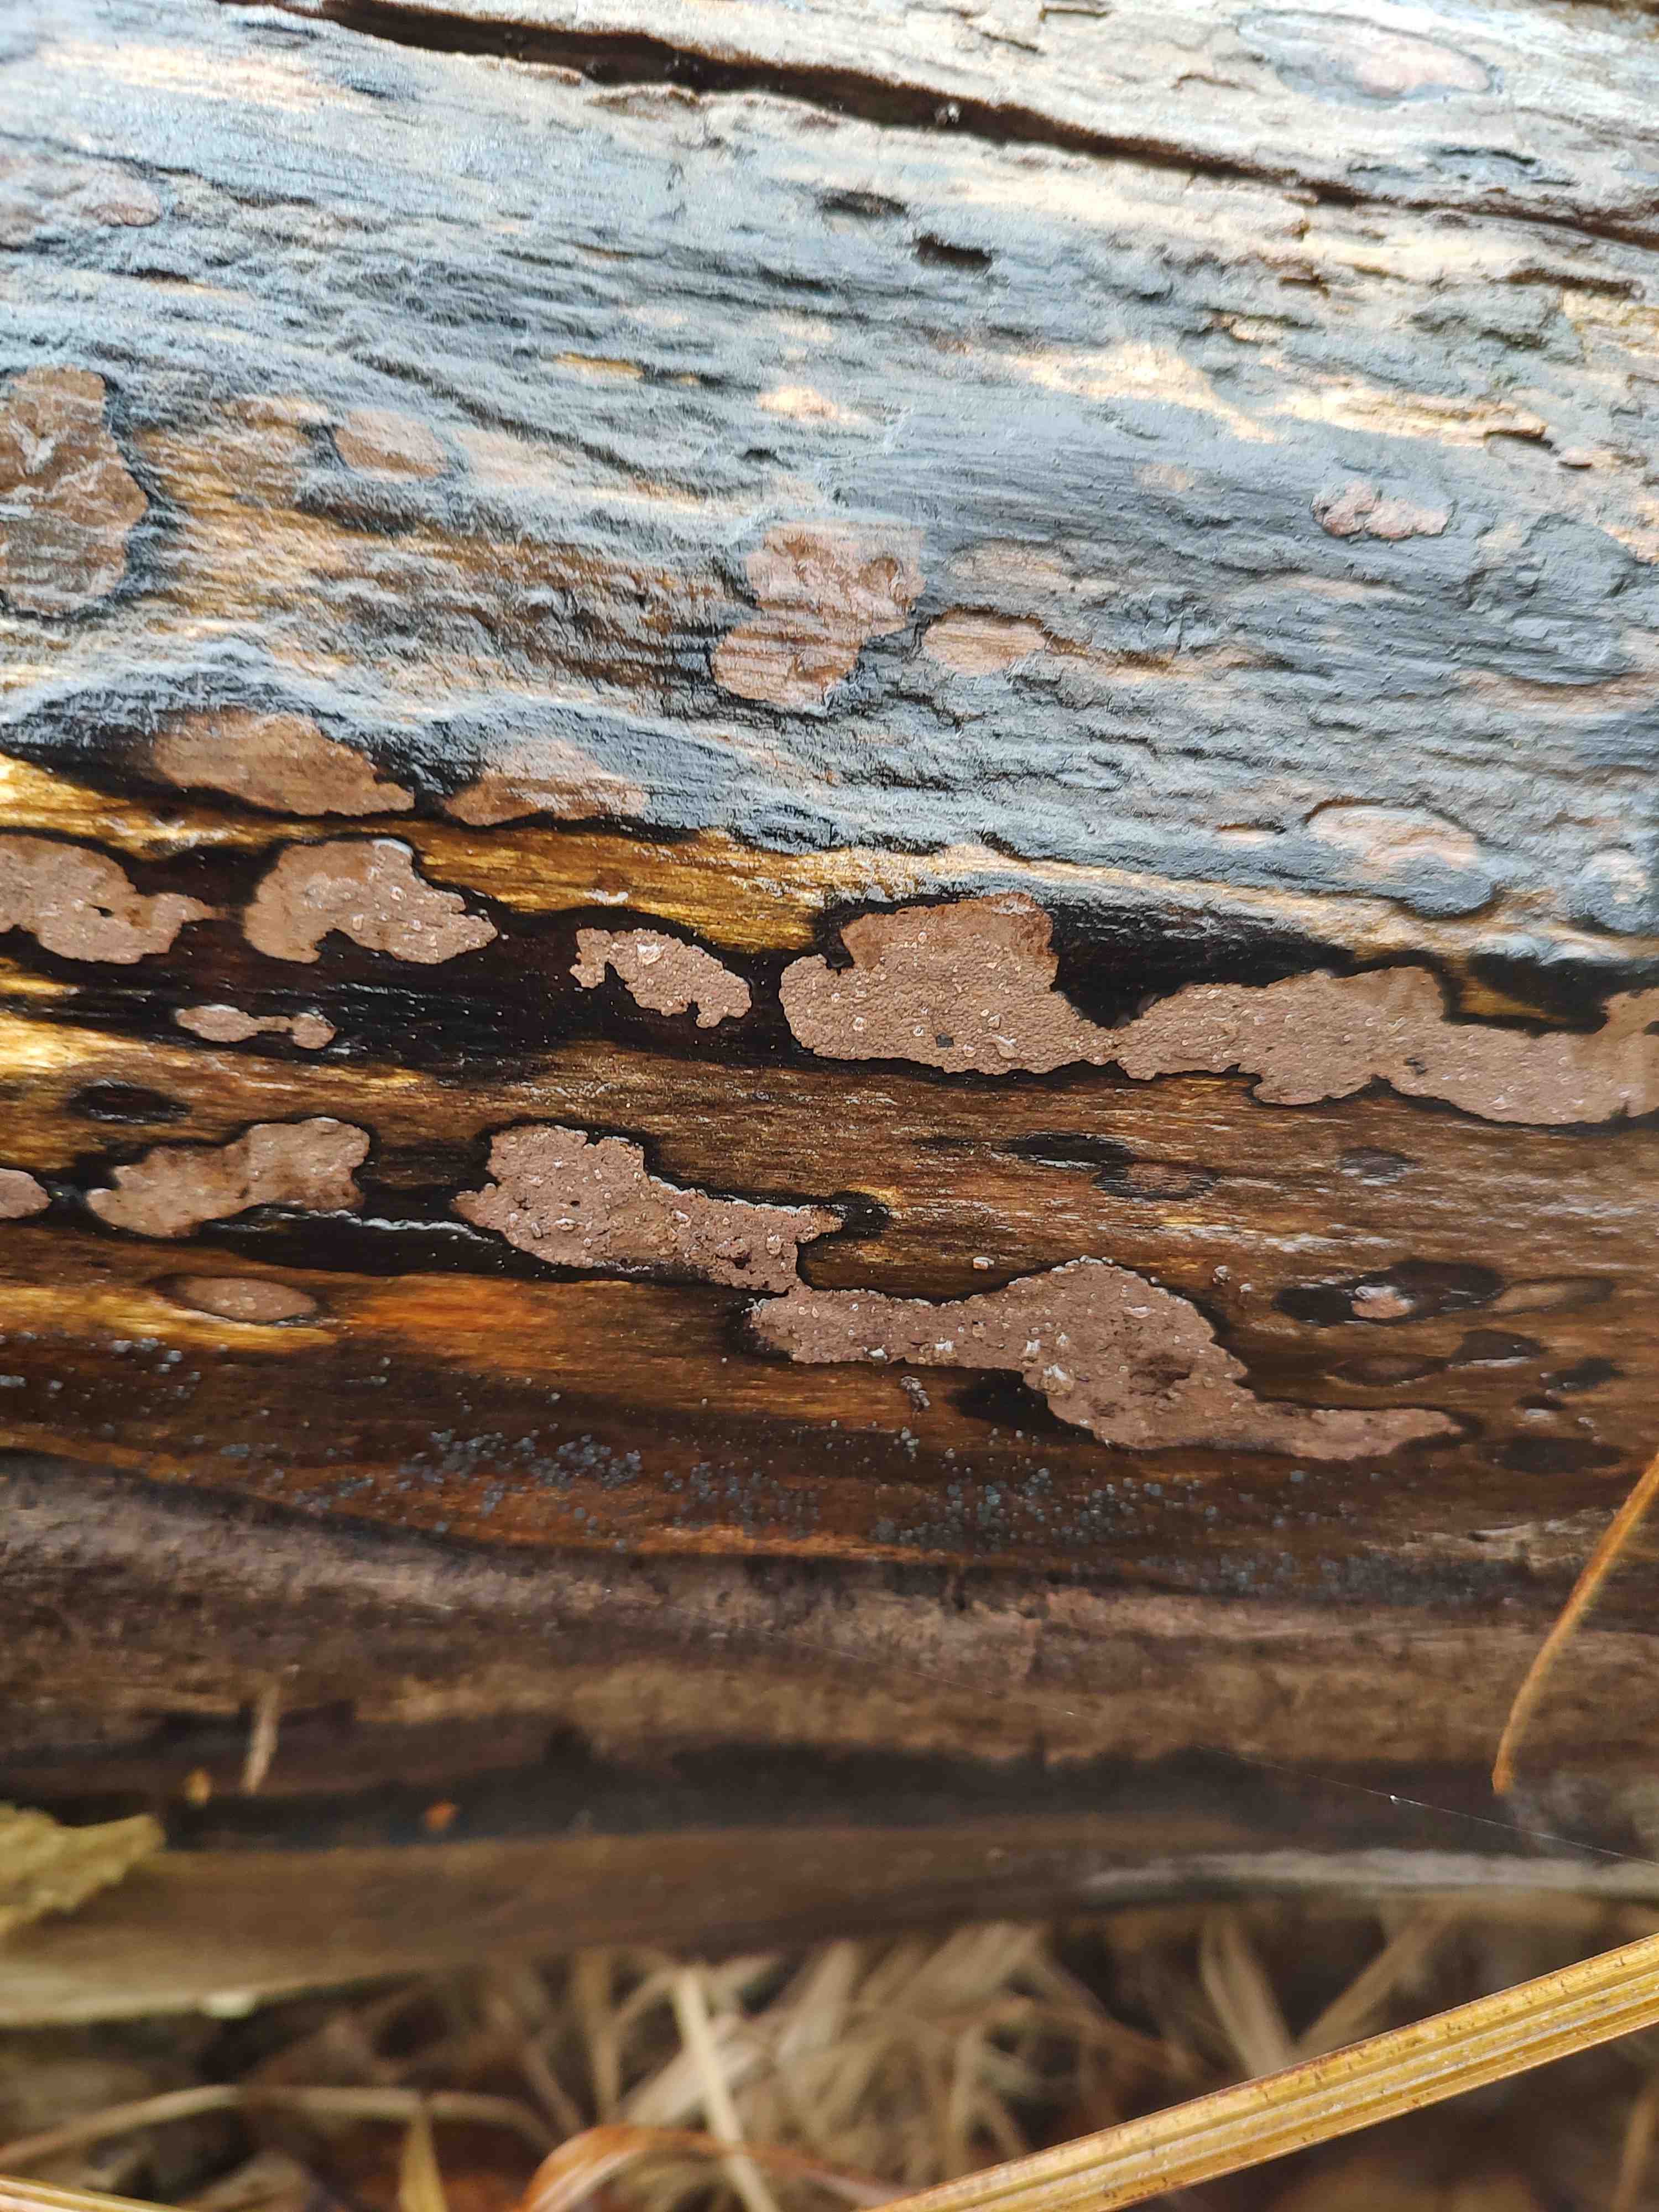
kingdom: Fungi
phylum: Ascomycota
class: Sordariomycetes
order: Xylariales
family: Hypoxylaceae
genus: Hypoxylon
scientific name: Hypoxylon petriniae
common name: nedsænket kulbær
